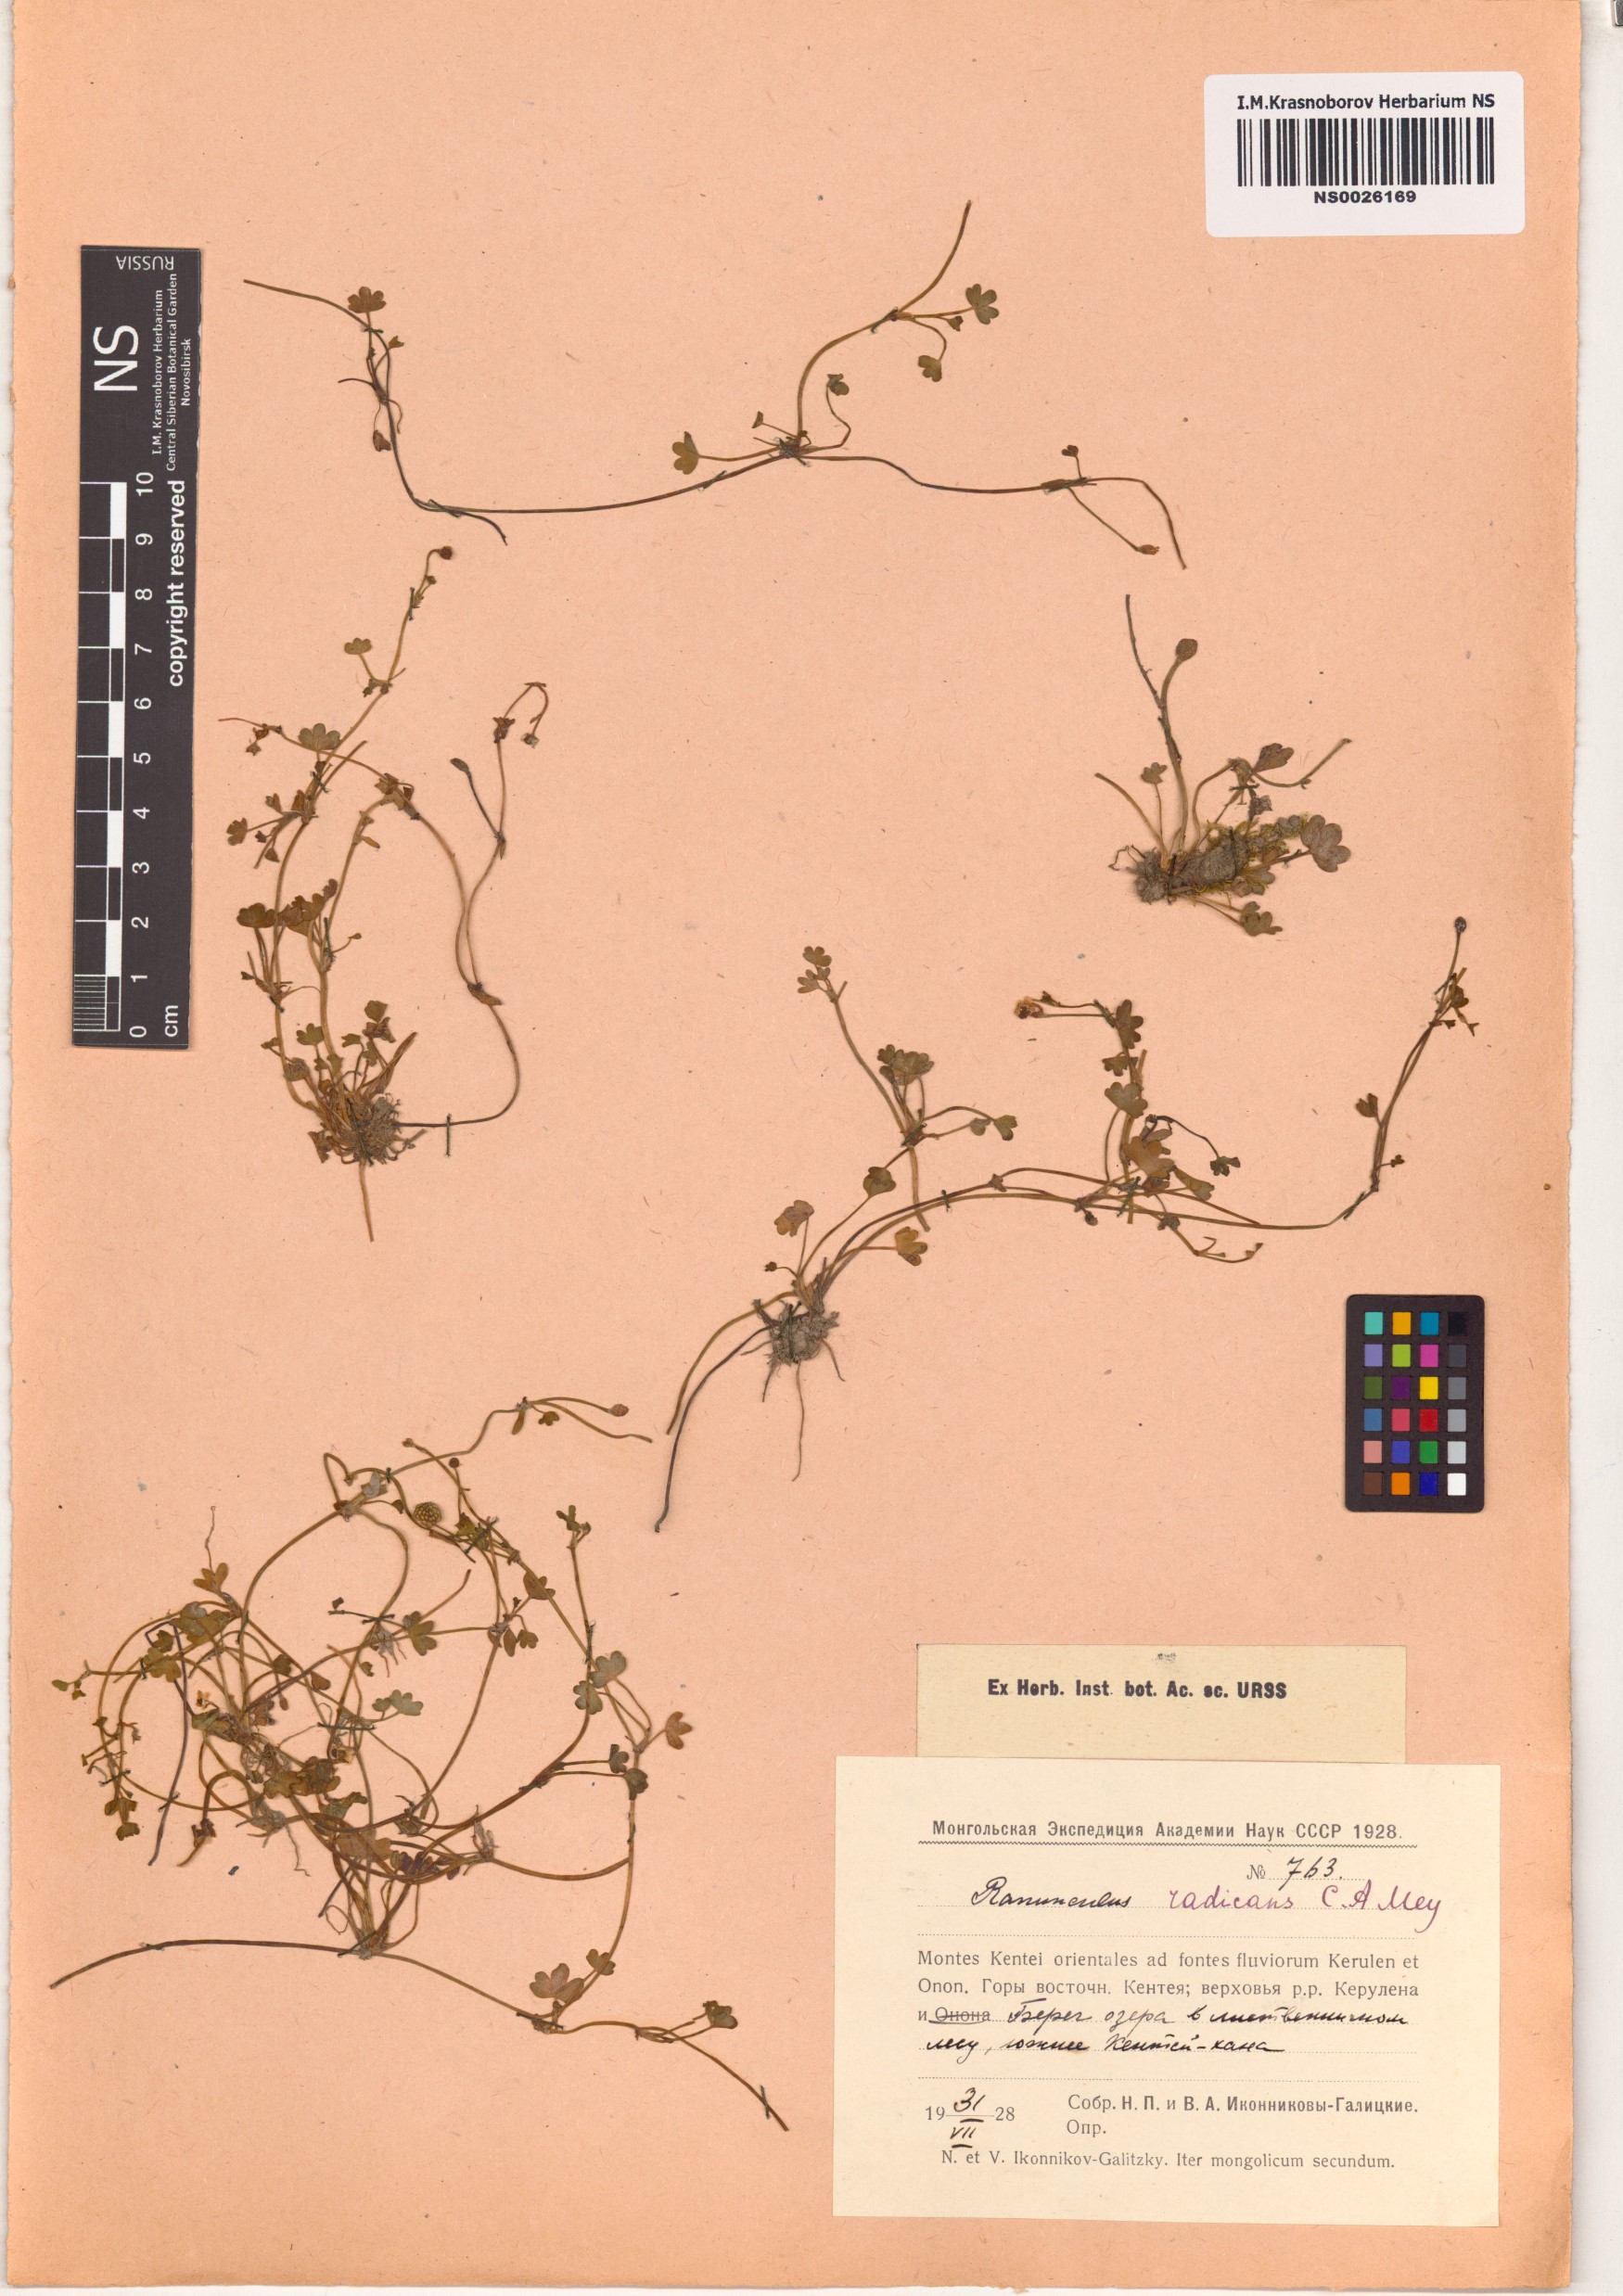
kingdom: Plantae
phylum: Tracheophyta
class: Magnoliopsida
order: Ranunculales
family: Ranunculaceae
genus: Ranunculus
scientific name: Ranunculus radicans
